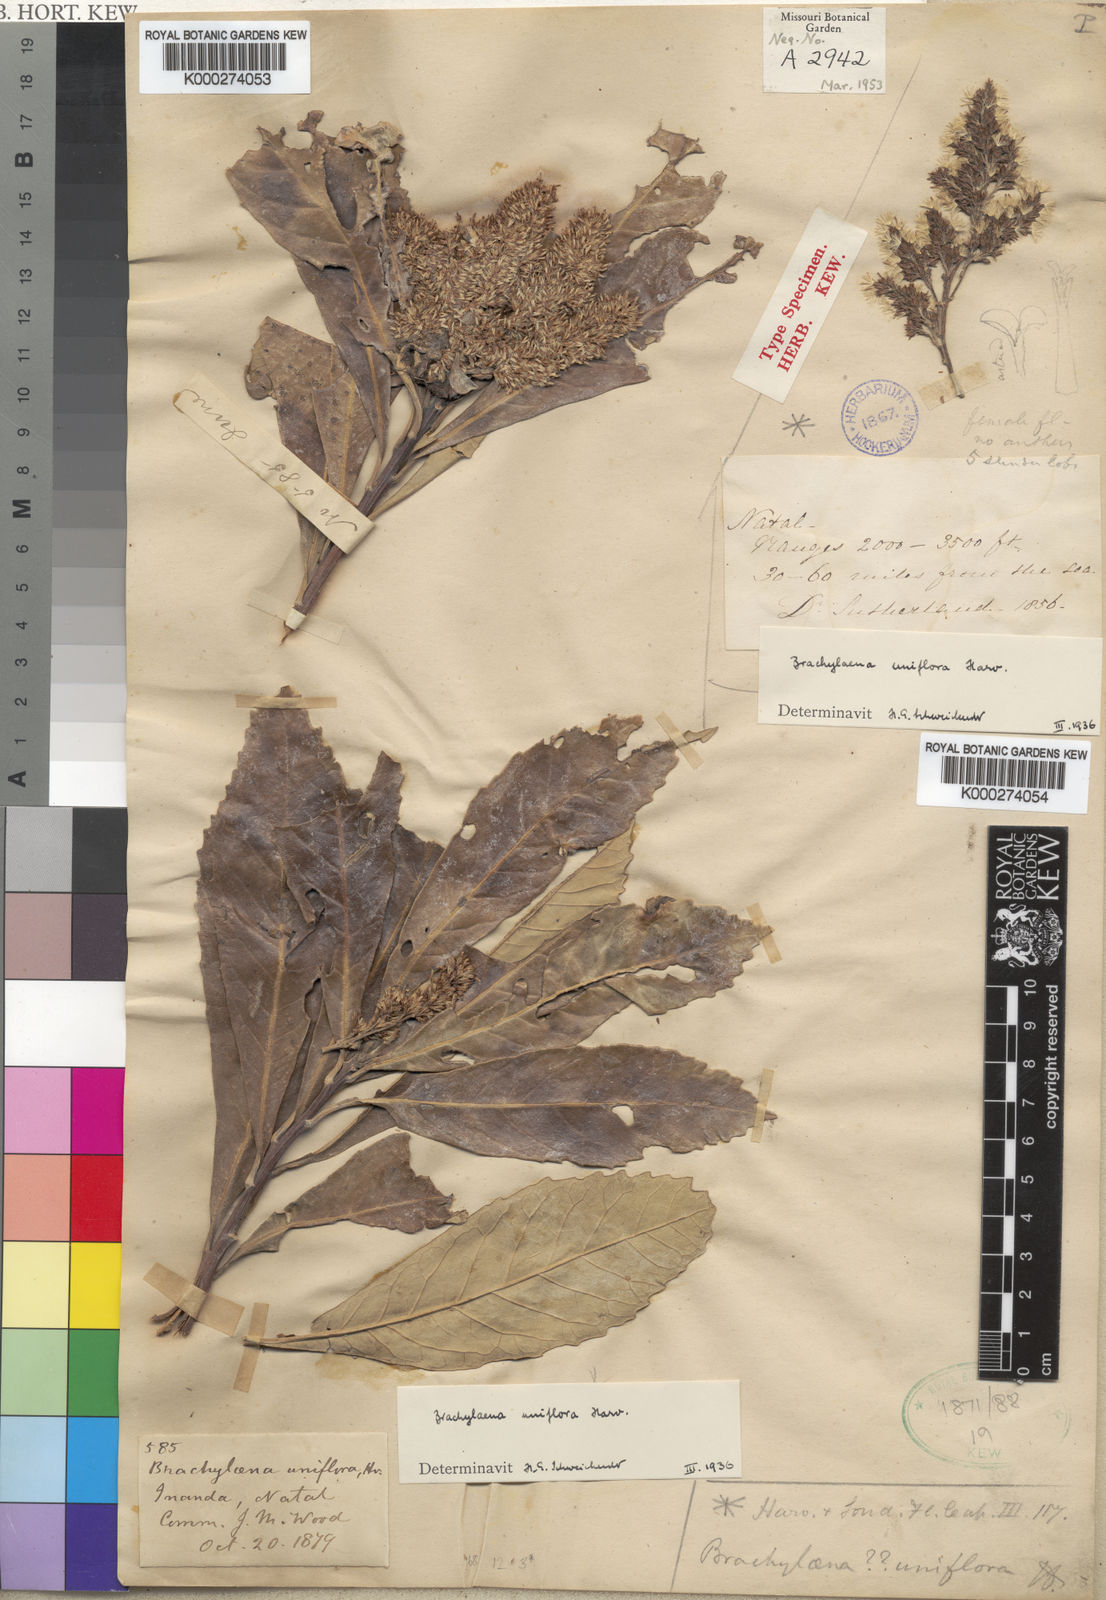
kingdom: Plantae
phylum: Tracheophyta
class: Magnoliopsida
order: Asterales
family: Asteraceae
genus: Brachylaena
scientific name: Brachylaena discolor
